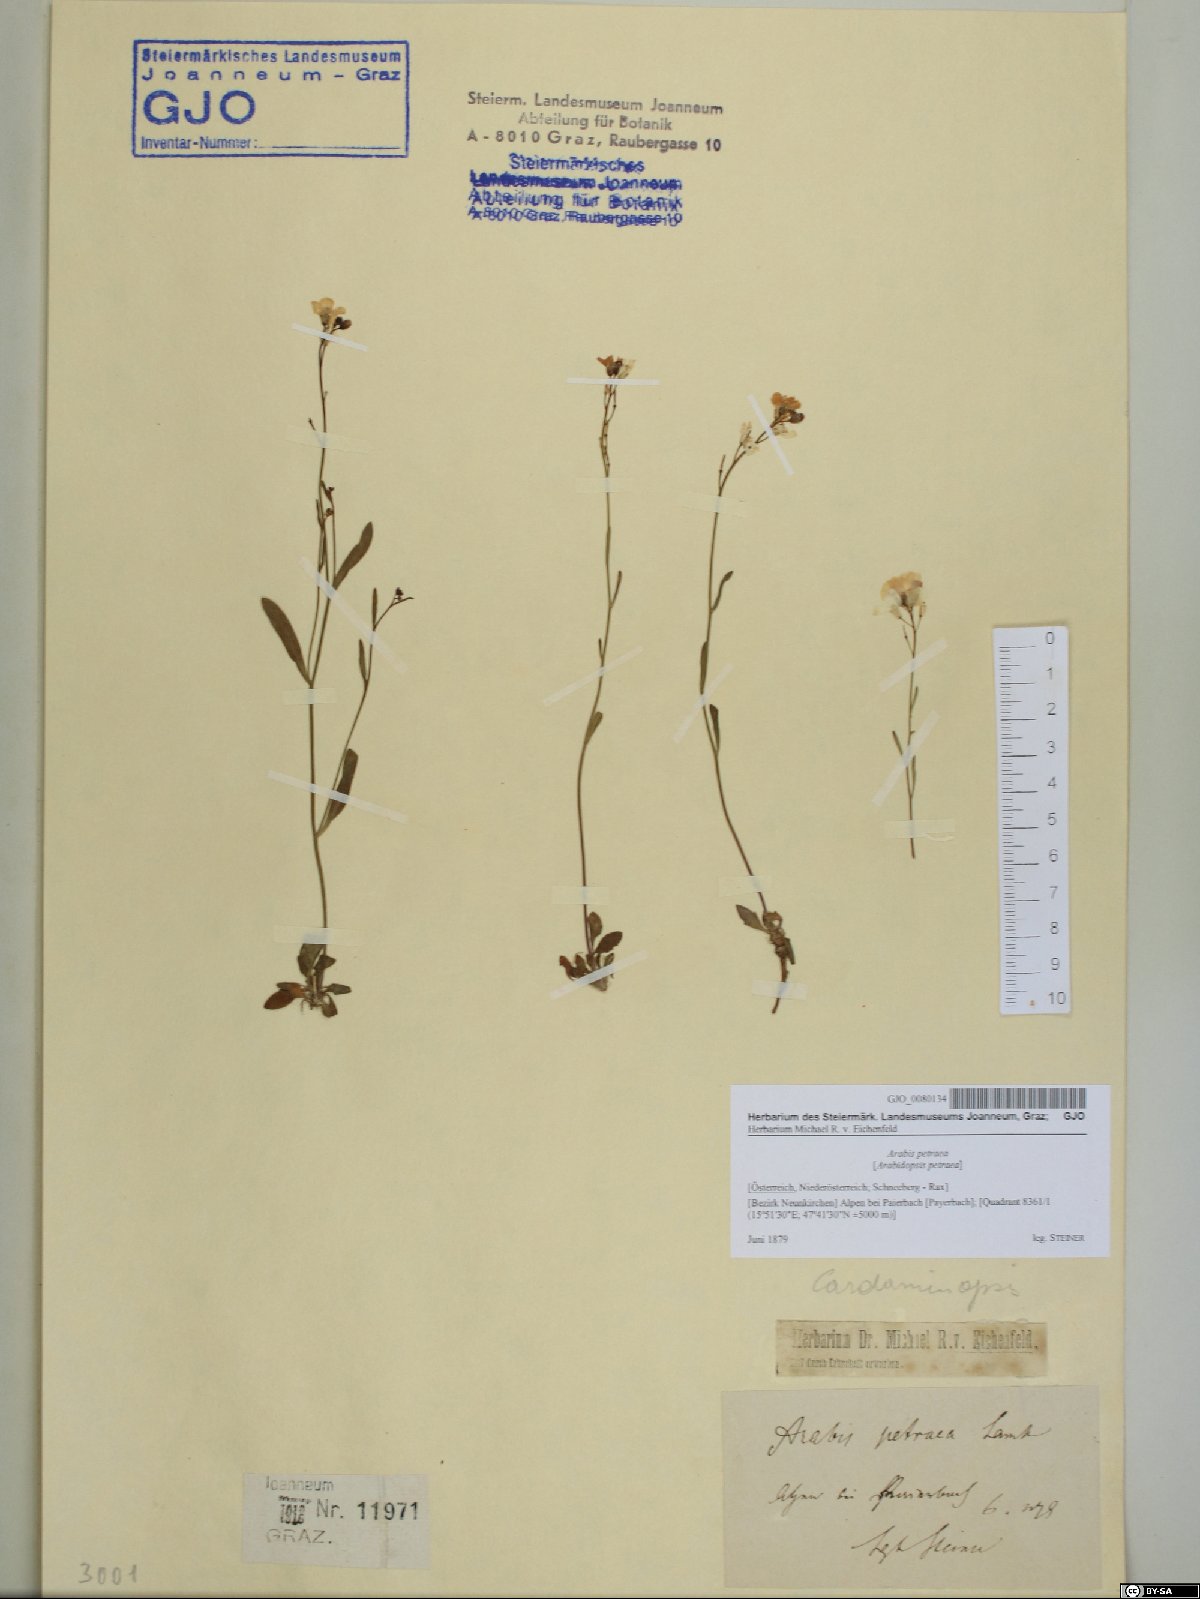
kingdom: Plantae
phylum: Tracheophyta
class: Magnoliopsida
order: Brassicales
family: Brassicaceae
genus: Arabidopsis
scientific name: Arabidopsis lyrata
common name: Lyrate rockcress
